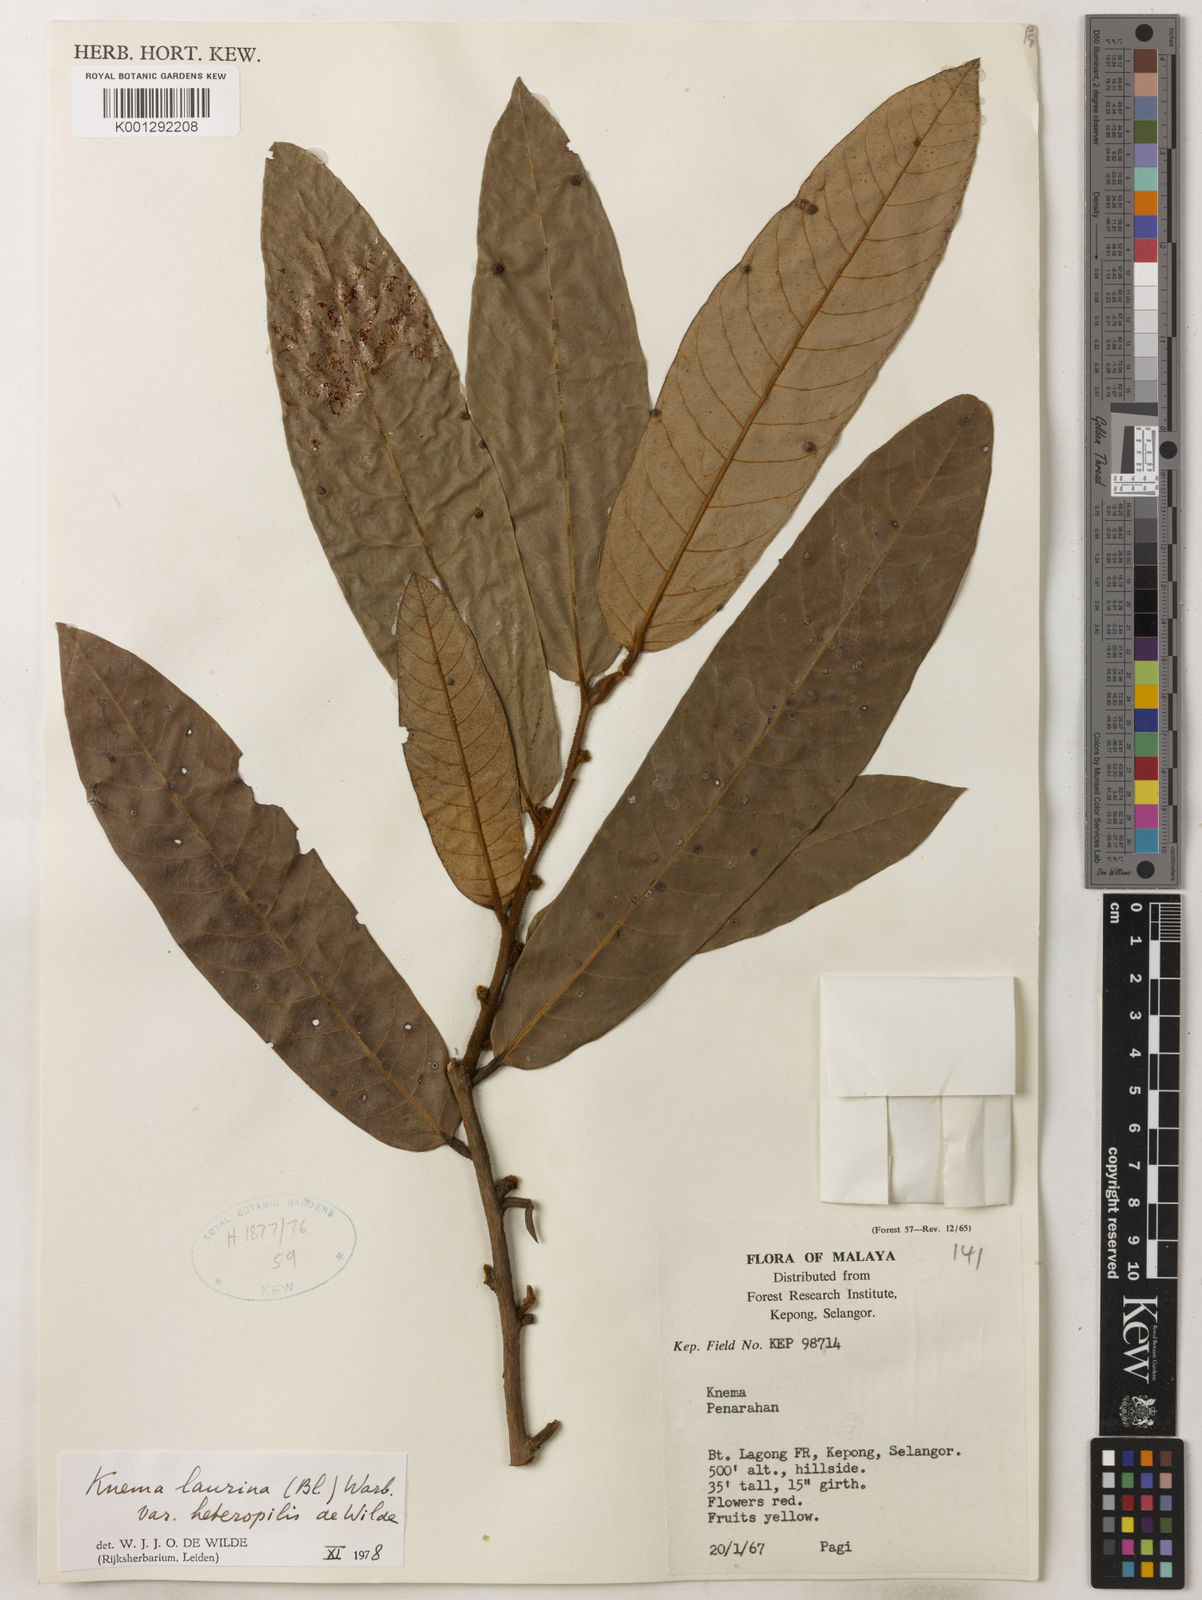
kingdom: Plantae
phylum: Tracheophyta
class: Magnoliopsida
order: Magnoliales
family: Myristicaceae
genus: Knema
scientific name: Knema laurina
